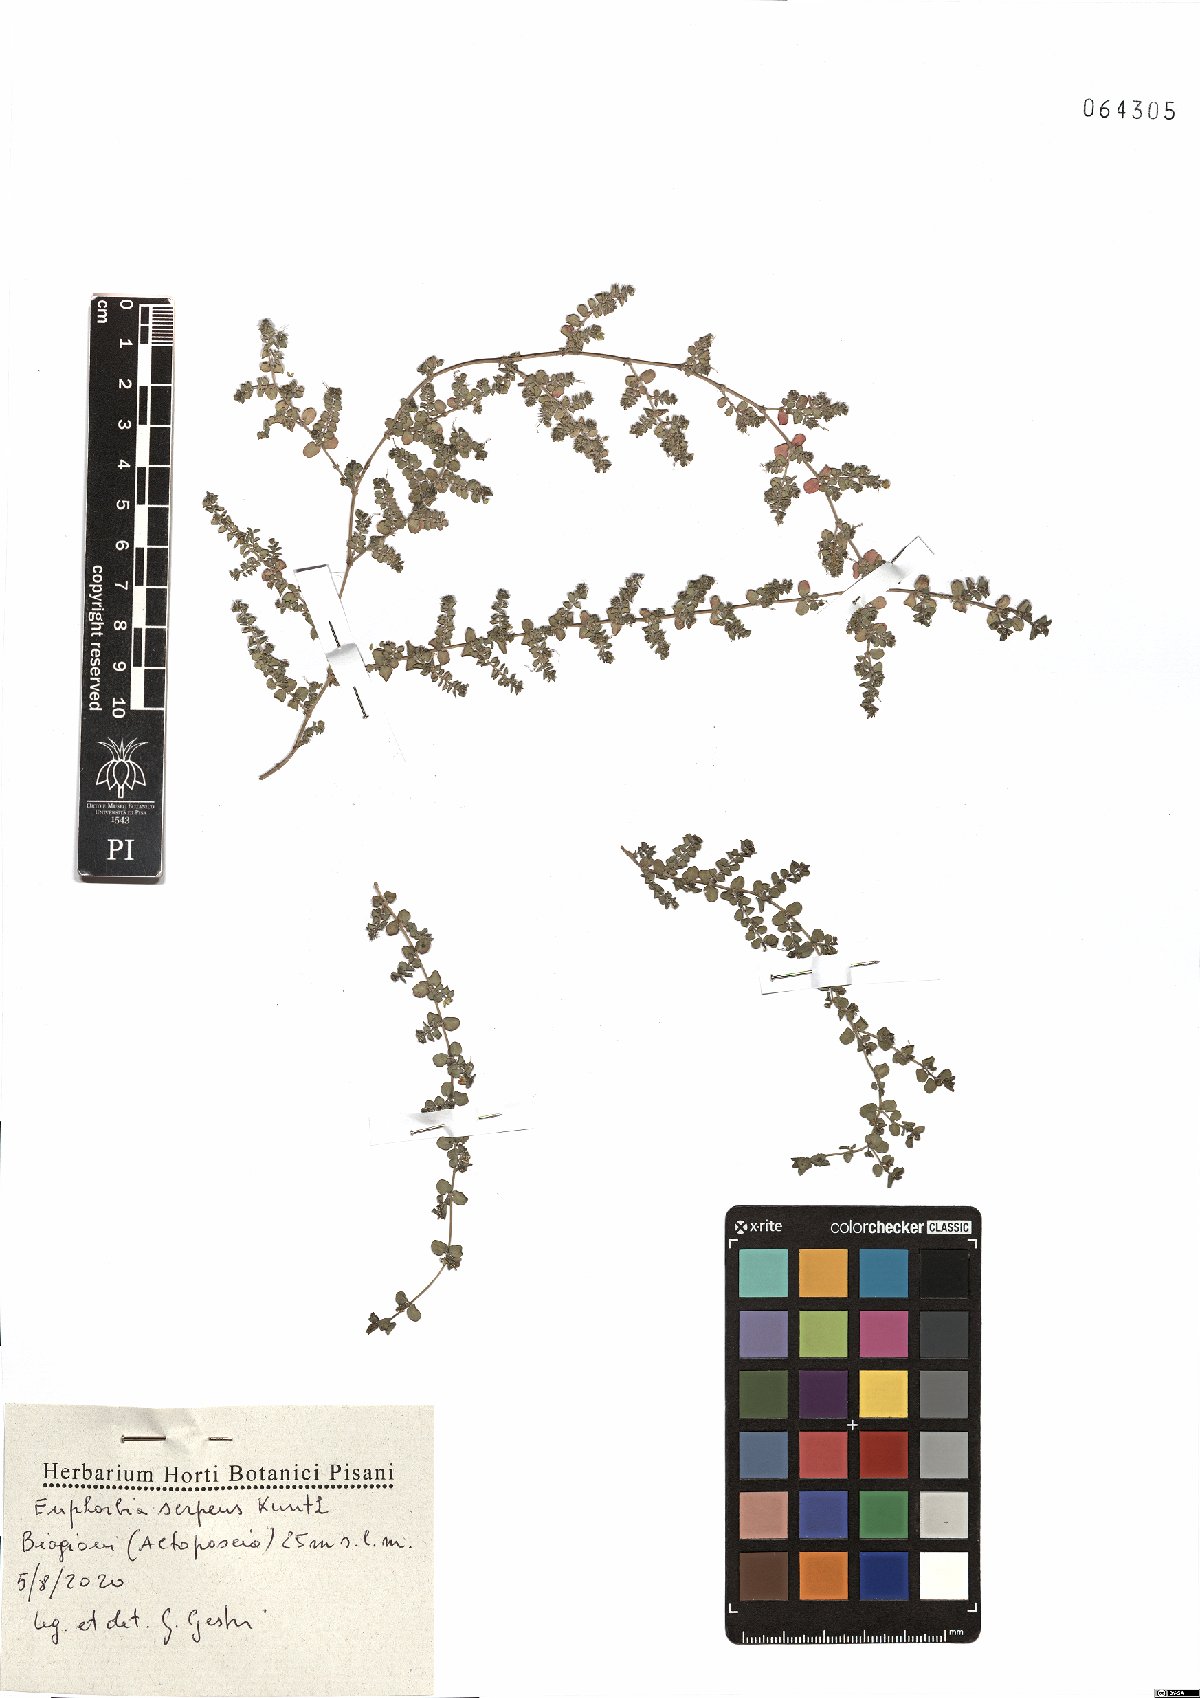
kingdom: Plantae
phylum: Tracheophyta
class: Magnoliopsida
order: Malpighiales
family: Euphorbiaceae
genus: Euphorbia
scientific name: Euphorbia serpens
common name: Matted sandmat
